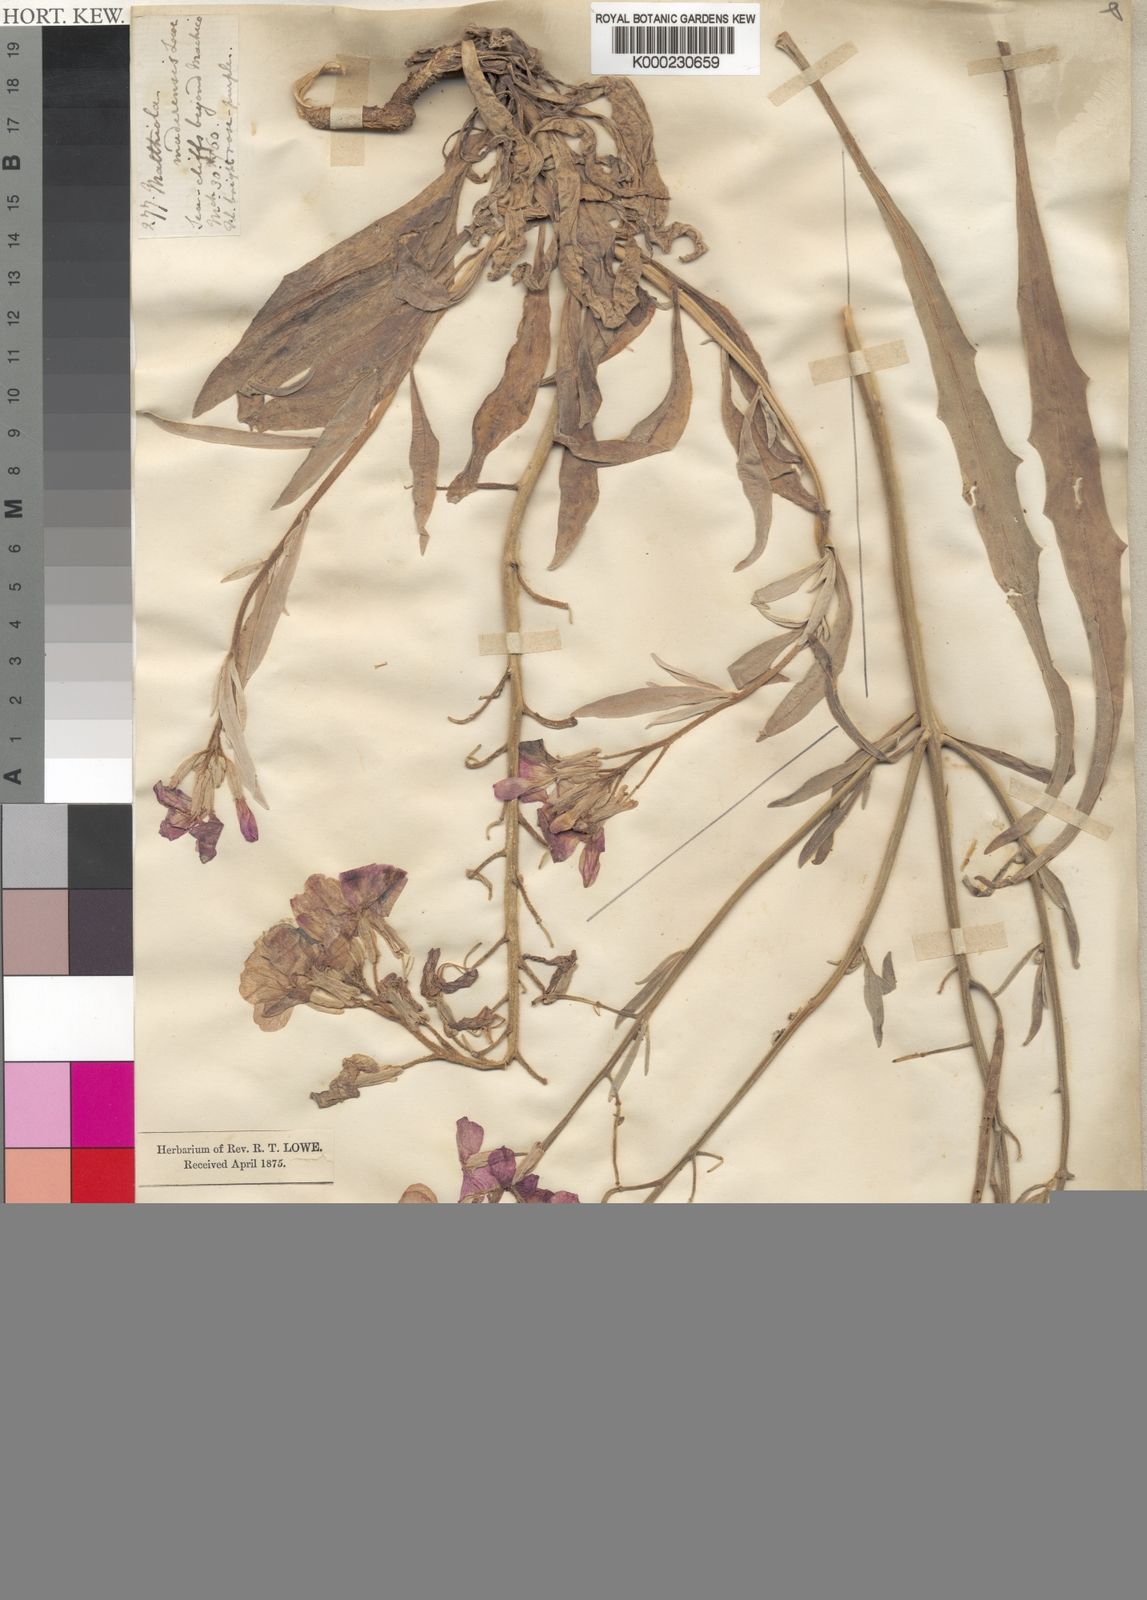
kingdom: Plantae
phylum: Tracheophyta
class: Magnoliopsida
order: Brassicales
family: Brassicaceae
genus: Matthiola
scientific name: Matthiola maderensis
